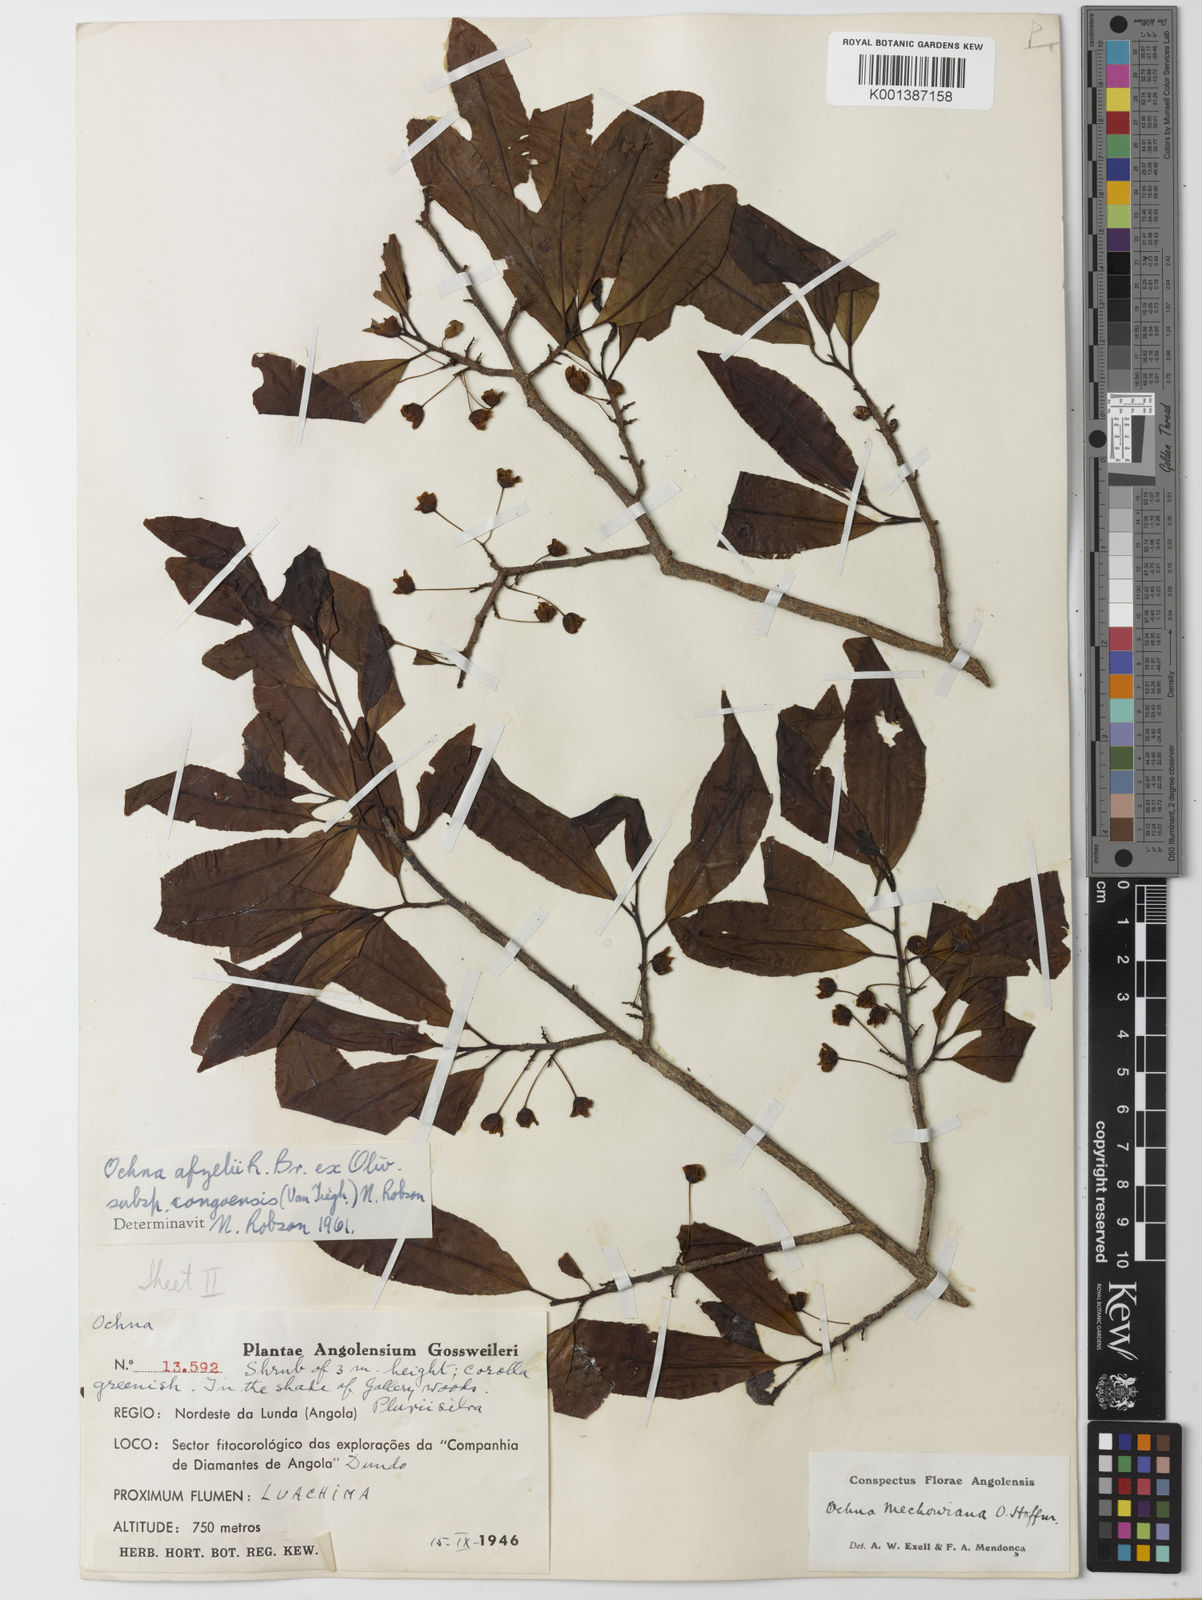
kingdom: Plantae
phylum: Tracheophyta
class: Magnoliopsida
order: Malpighiales
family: Ochnaceae
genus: Ochna
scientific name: Ochna
